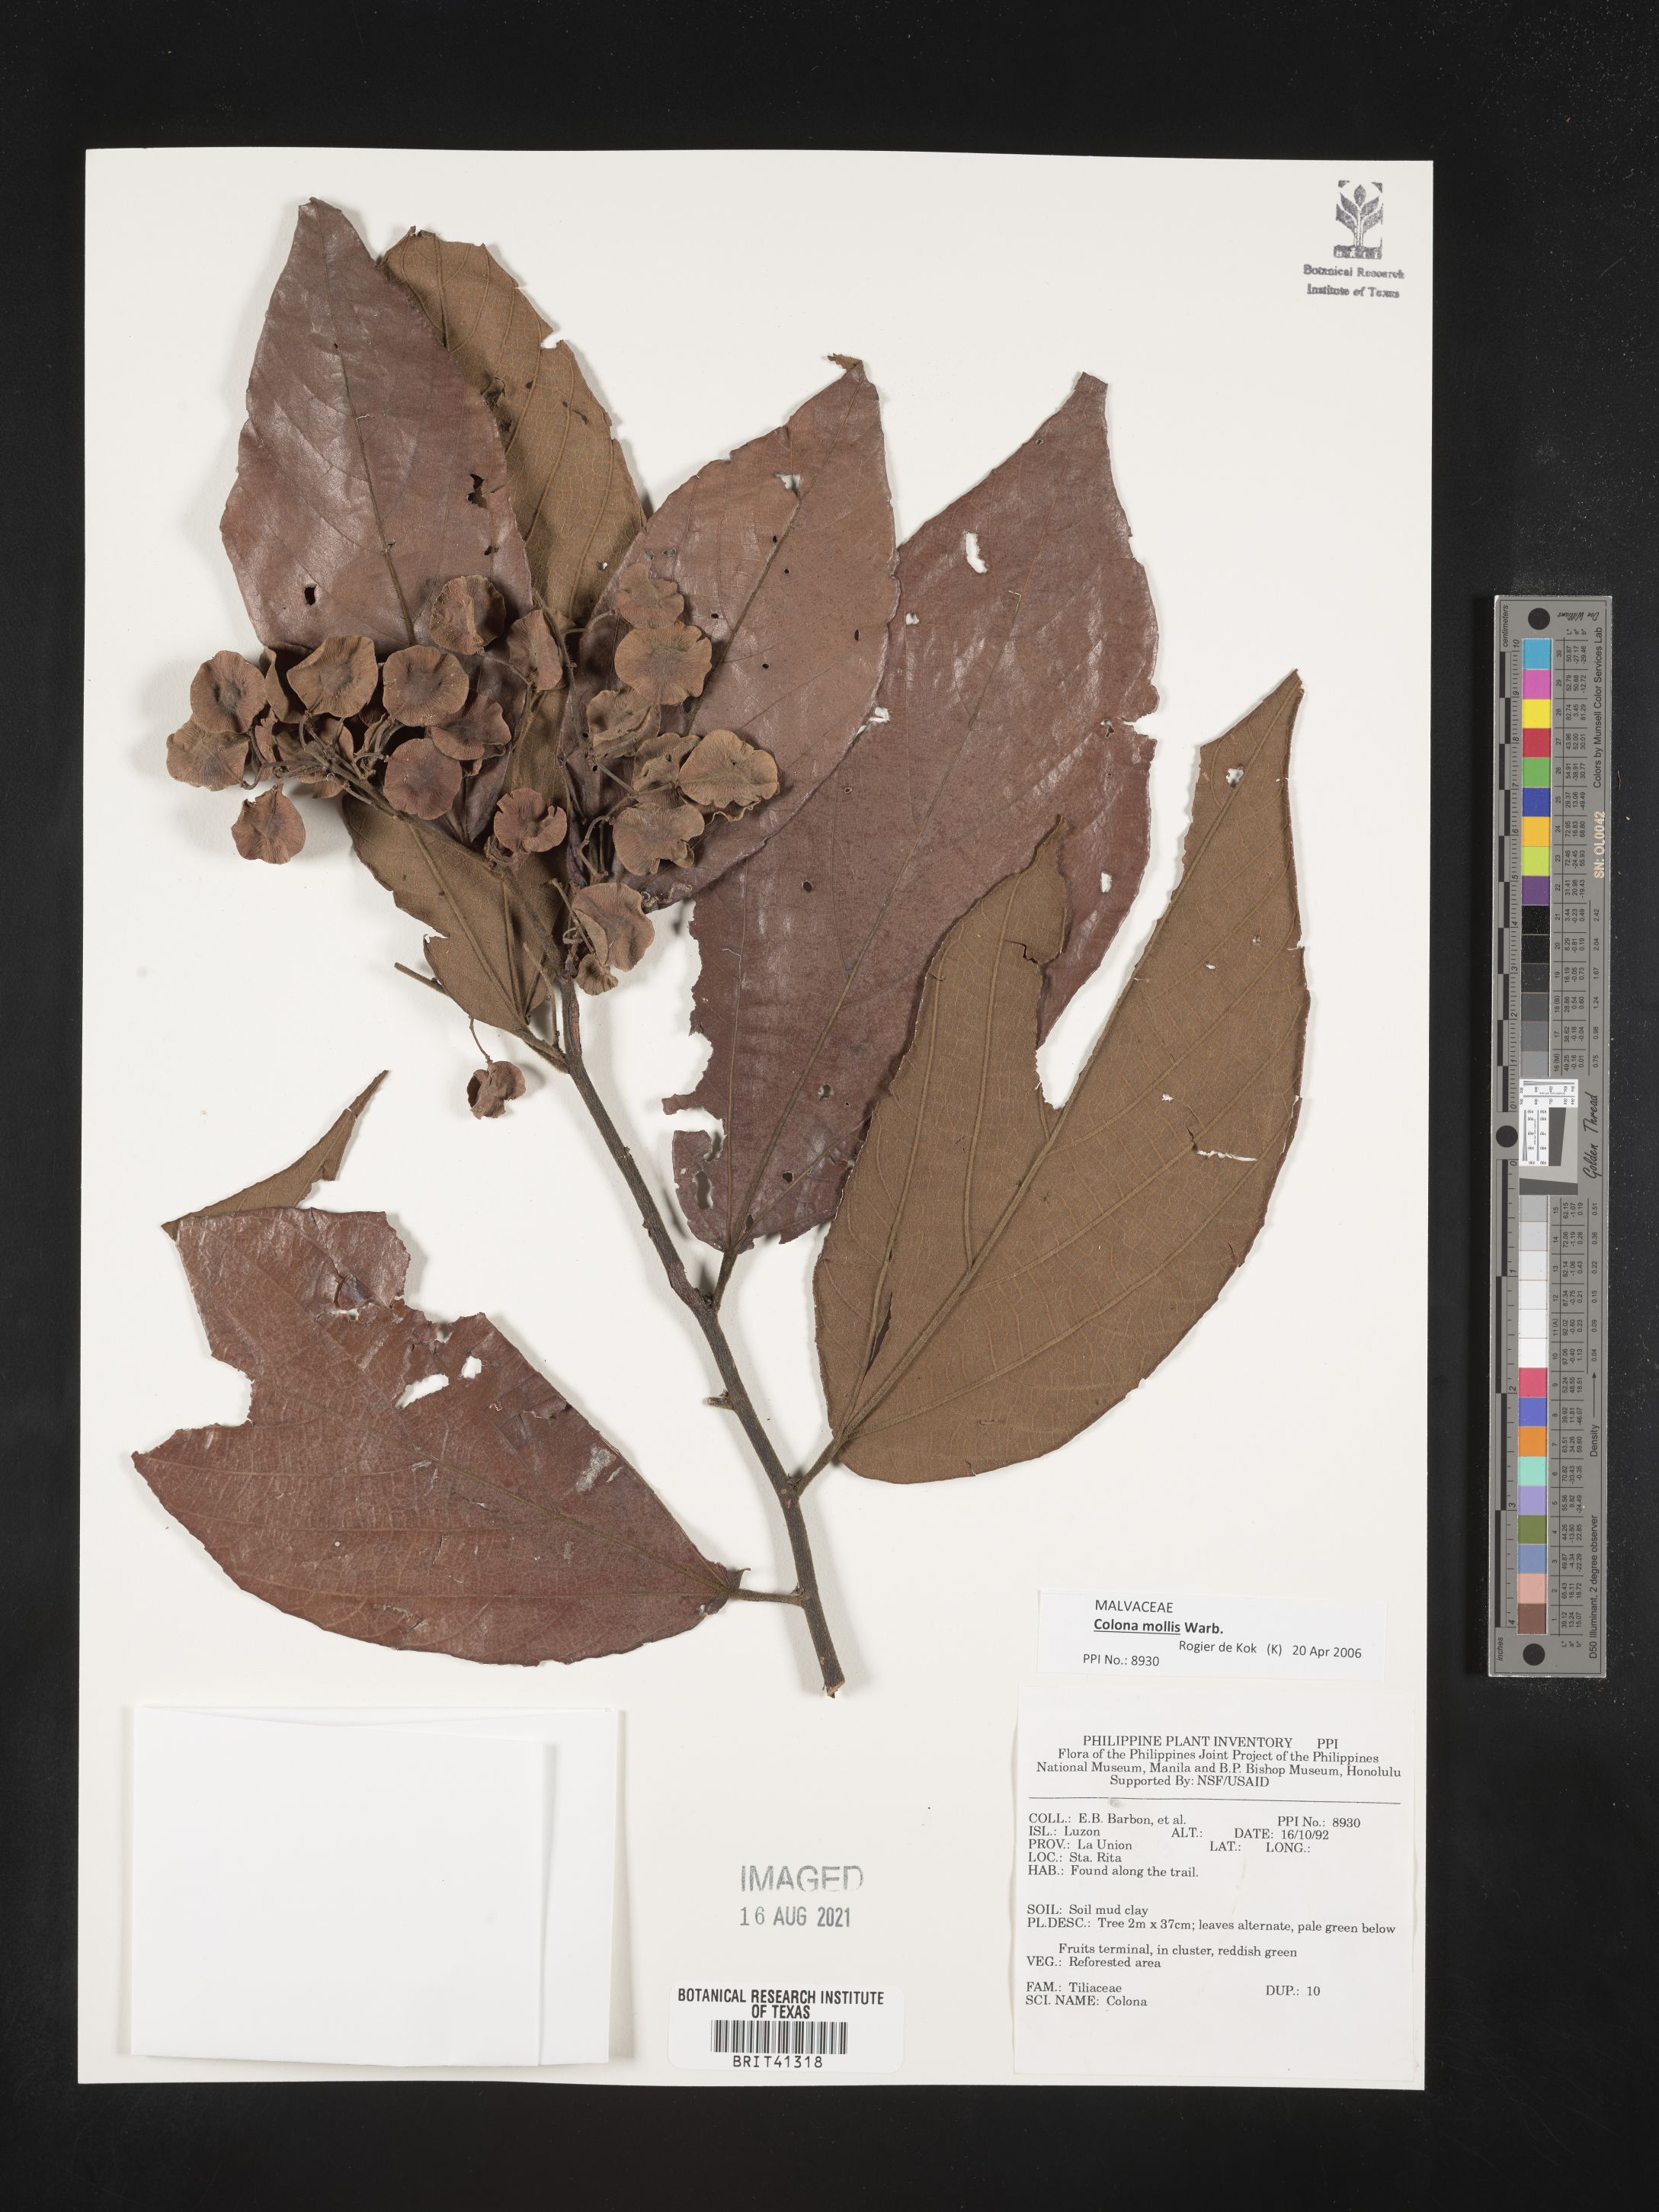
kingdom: Plantae
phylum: Tracheophyta
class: Magnoliopsida
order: Malvales
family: Malvaceae
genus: Colona
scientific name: Colona
